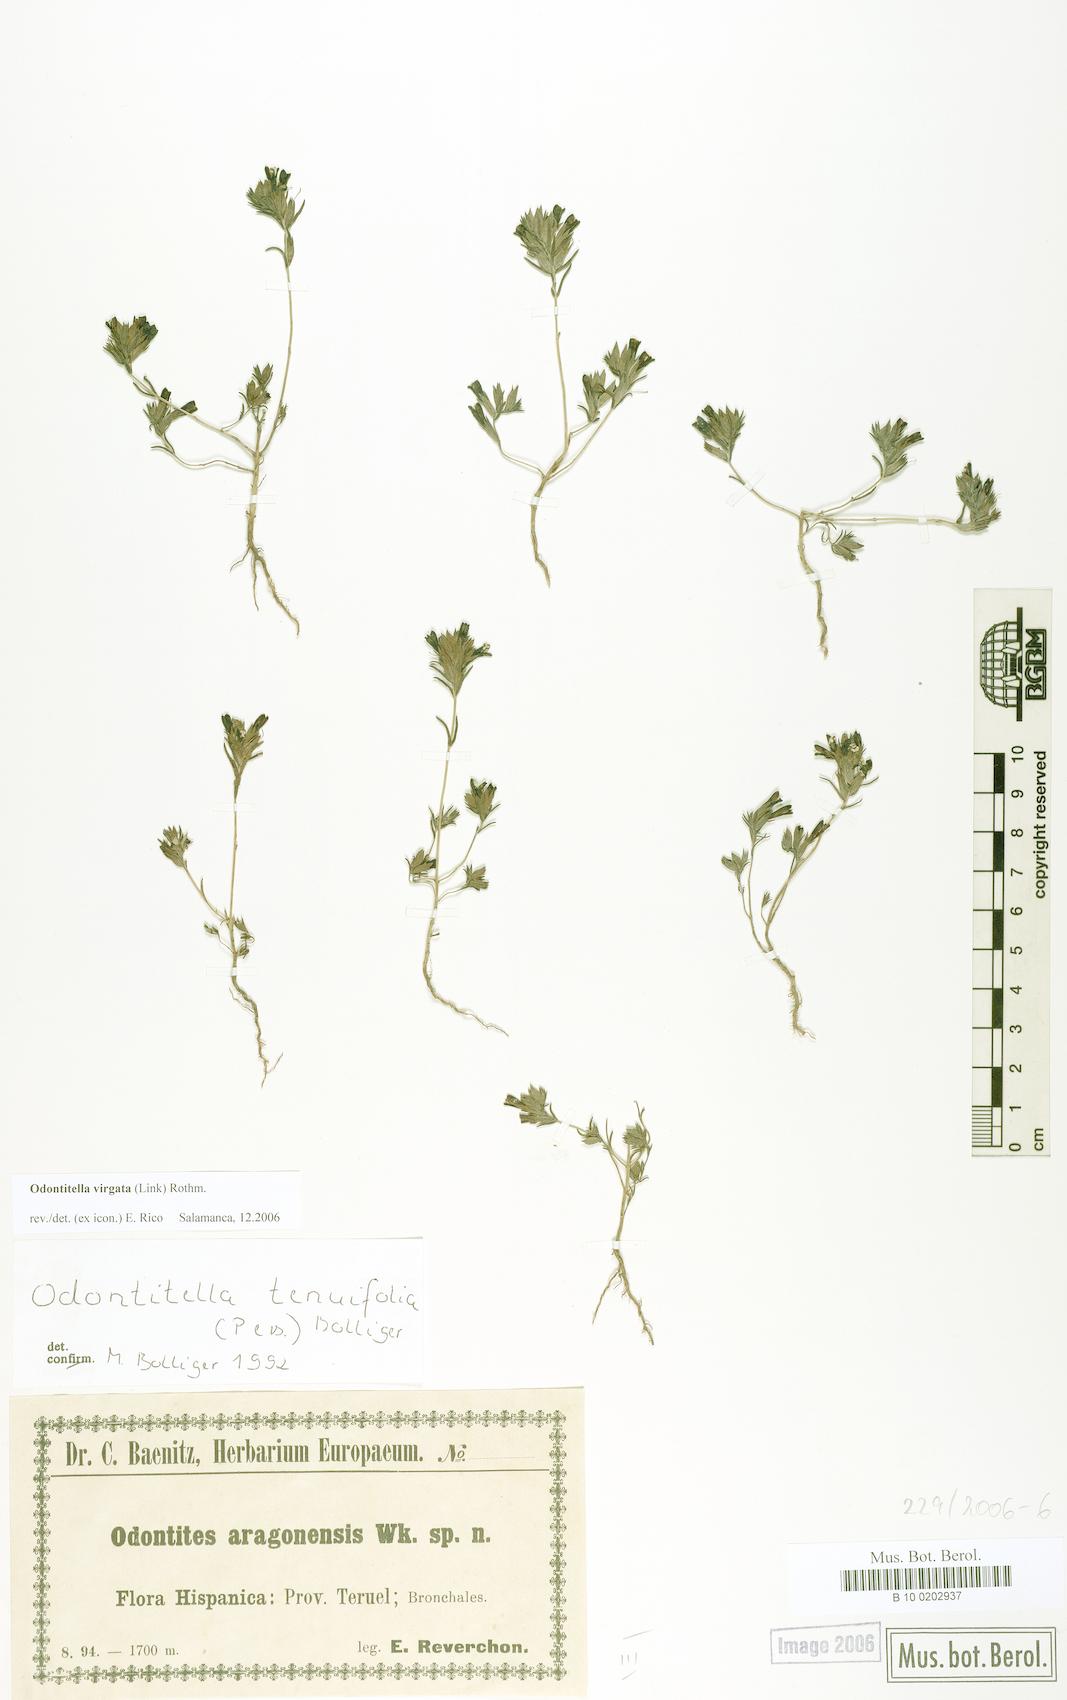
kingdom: Plantae
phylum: Tracheophyta
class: Magnoliopsida
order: Lamiales
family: Orobanchaceae
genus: Odontitella
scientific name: Odontitella virgata
